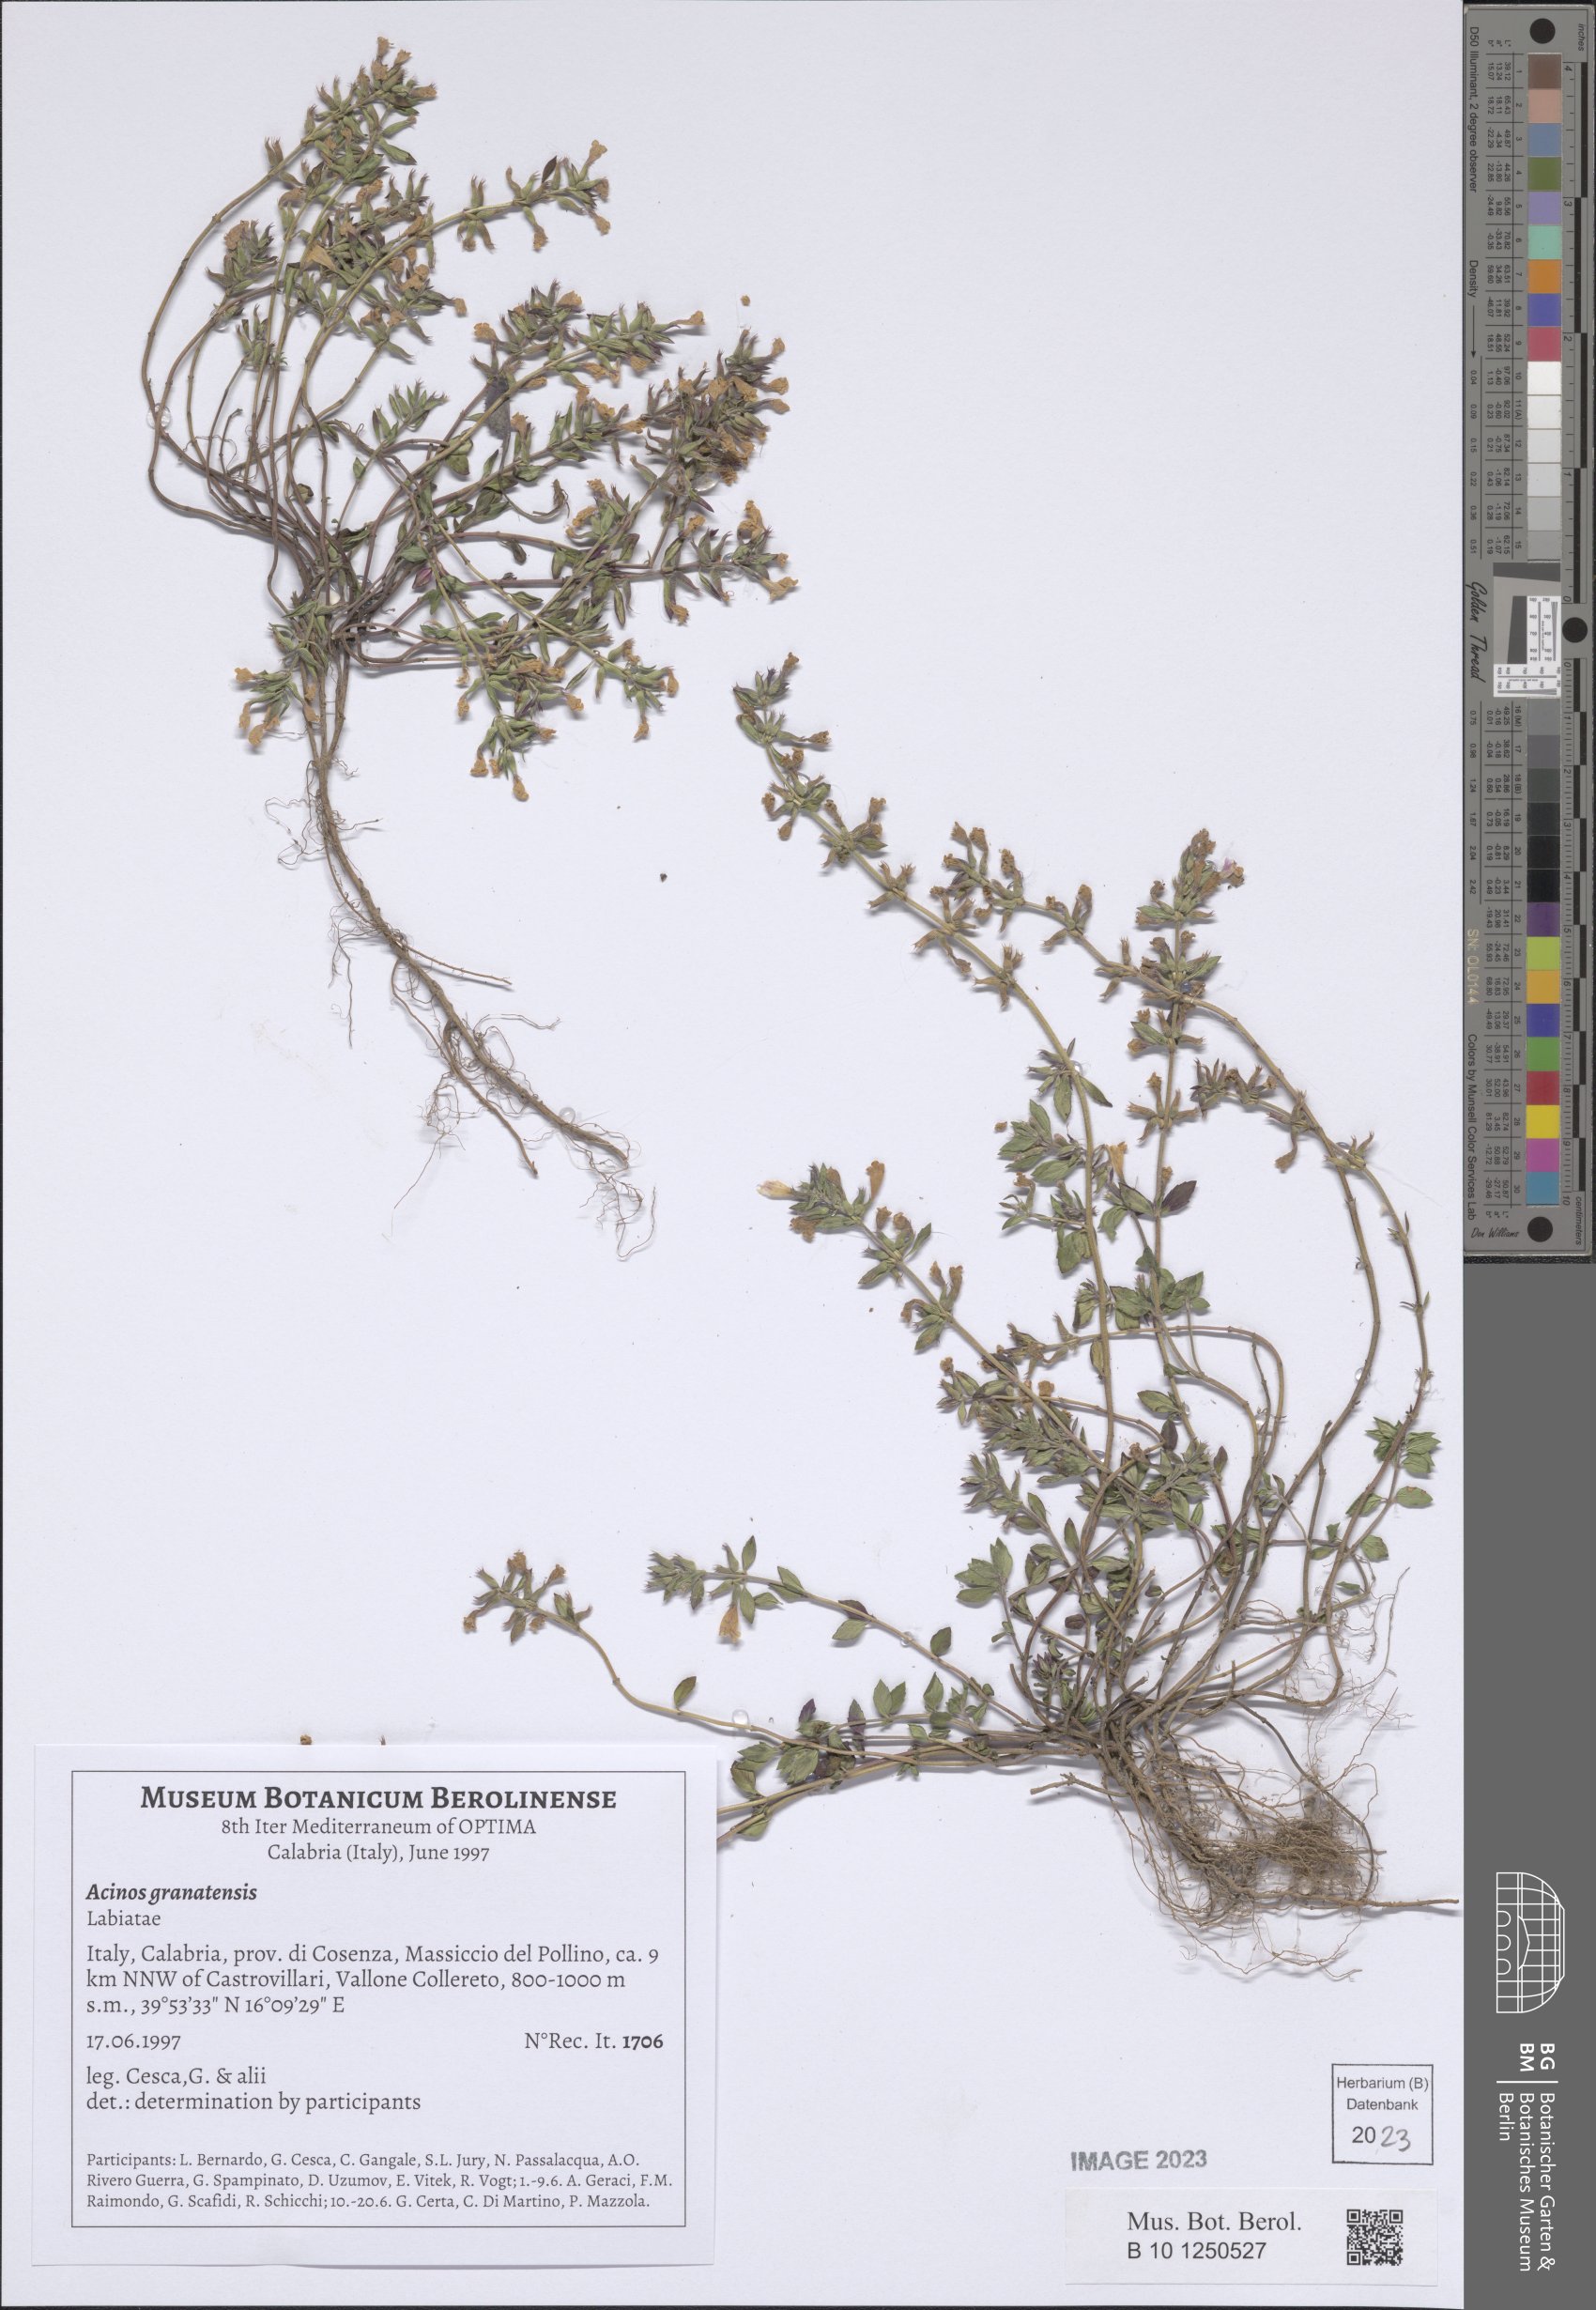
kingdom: Plantae
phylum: Tracheophyta
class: Magnoliopsida
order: Lamiales
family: Lamiaceae
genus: Clinopodium
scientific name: Clinopodium alpinum
